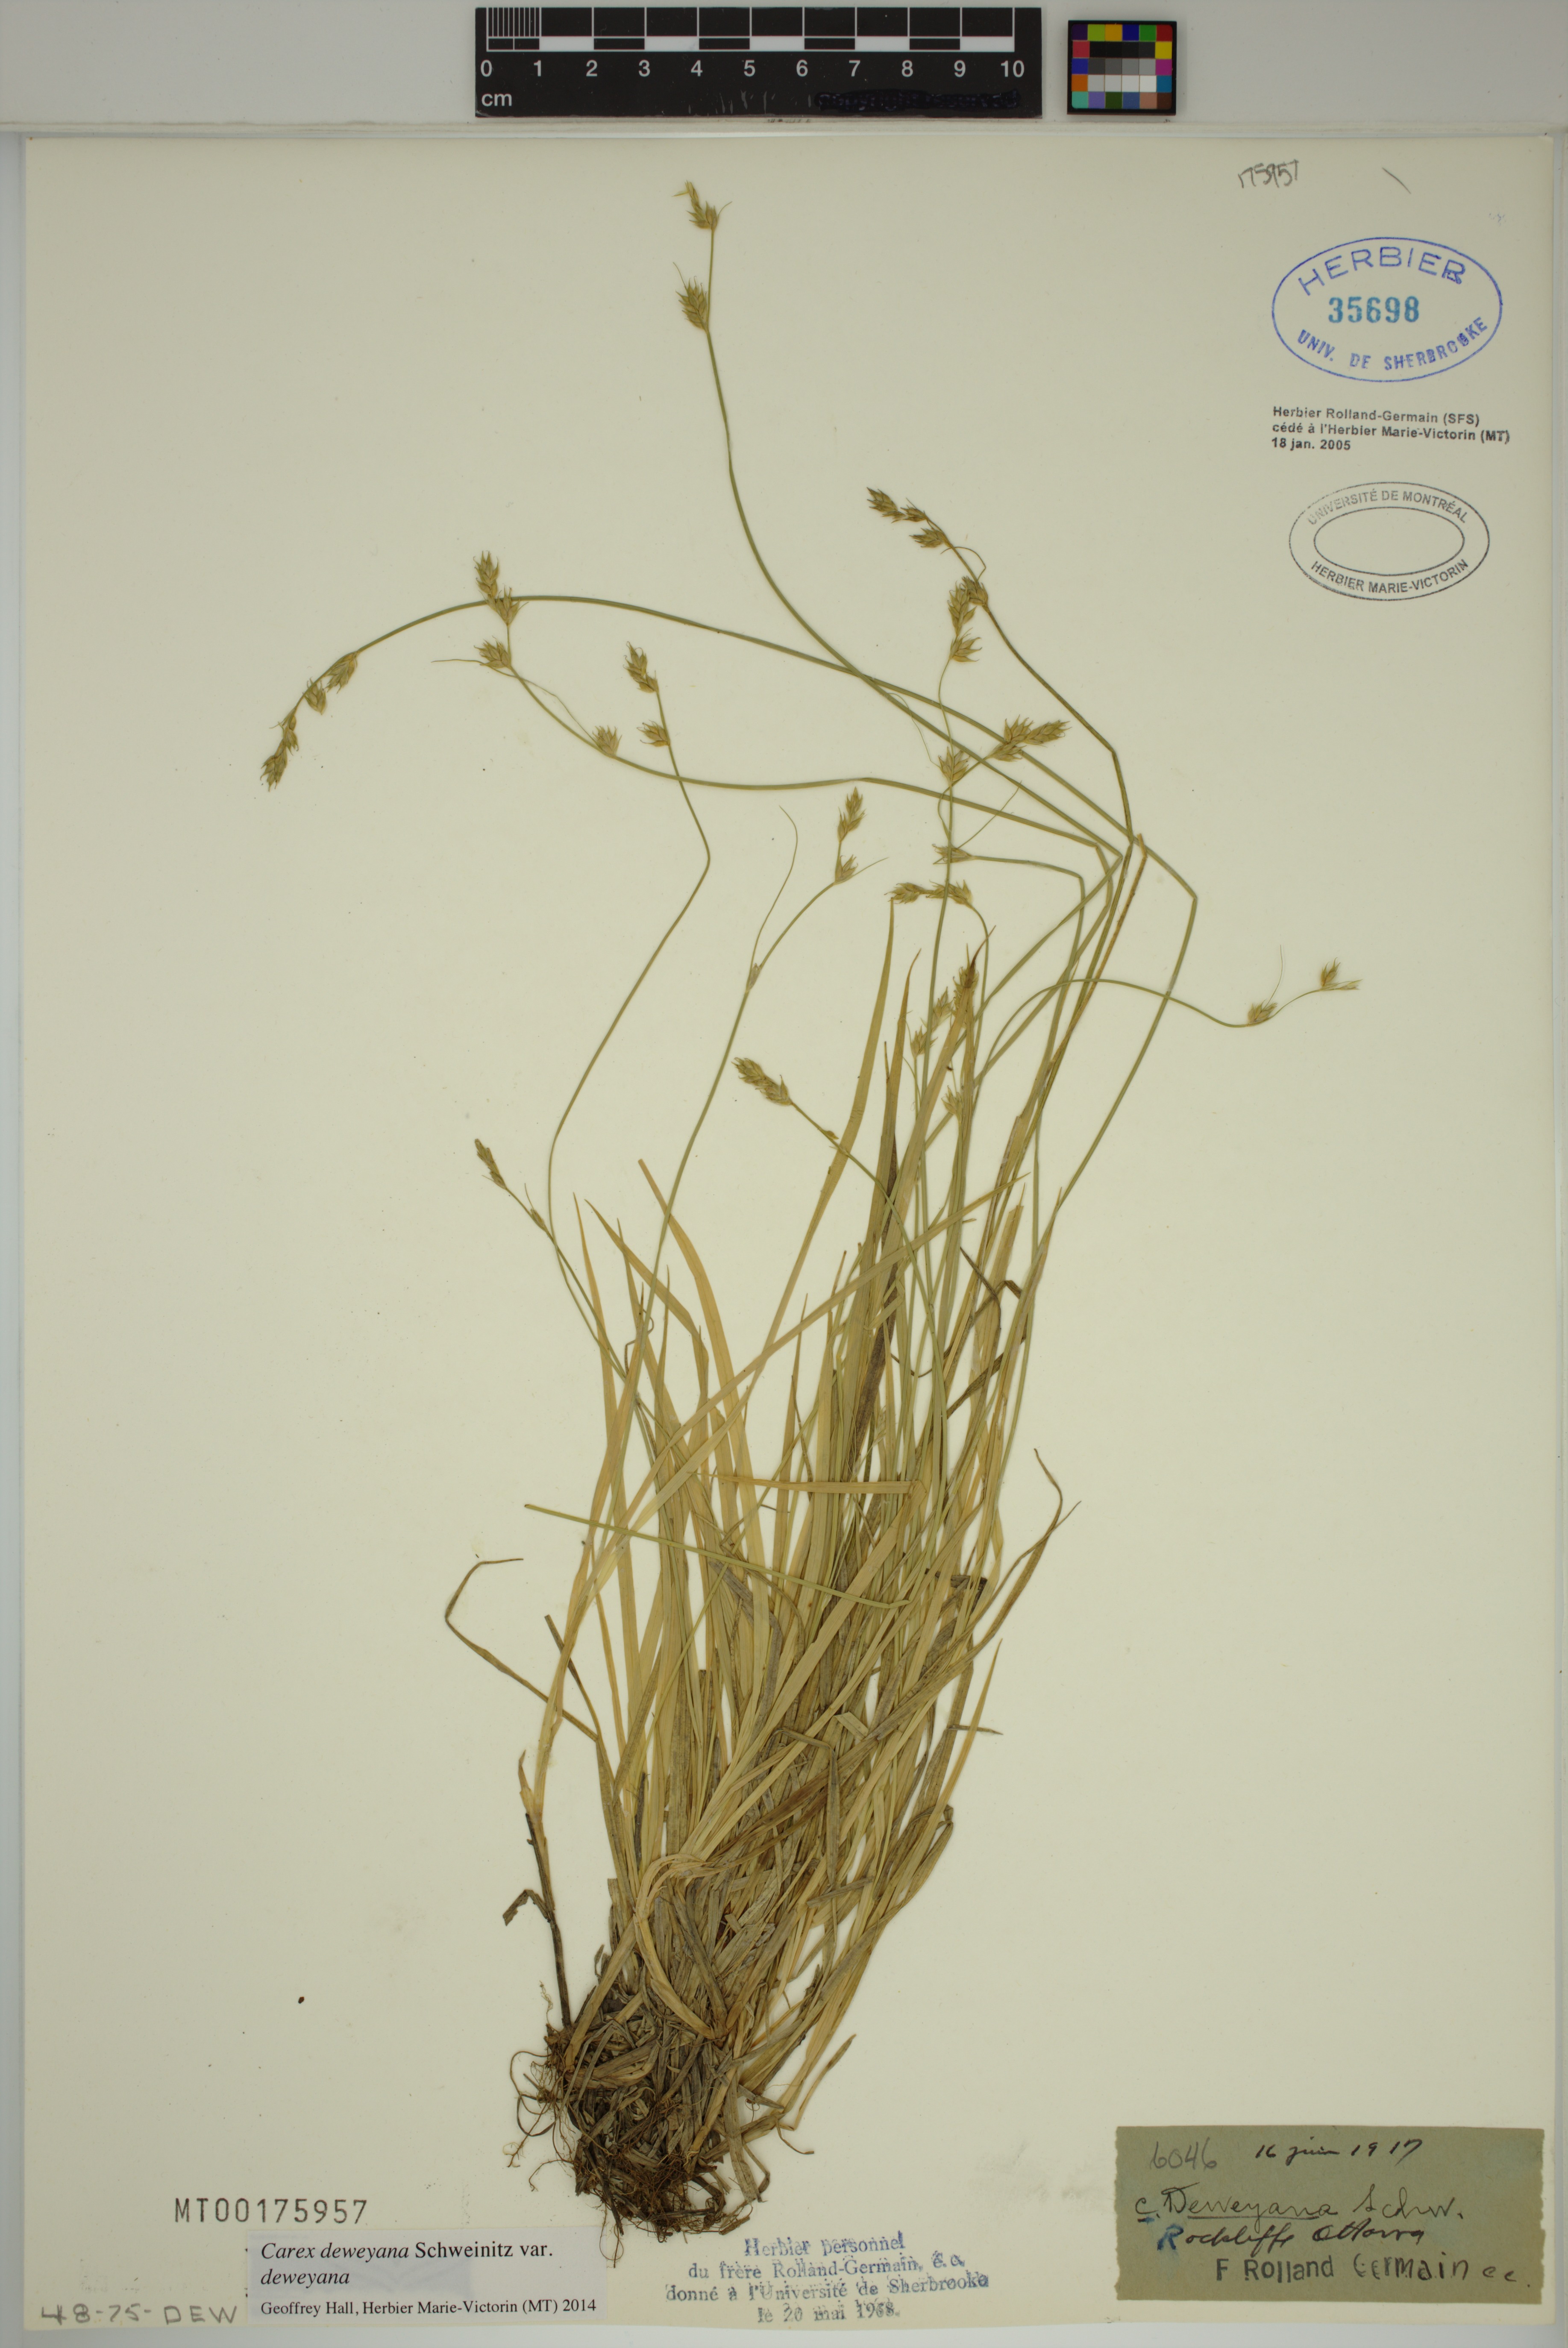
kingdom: Plantae
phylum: Tracheophyta
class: Liliopsida
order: Poales
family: Cyperaceae
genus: Carex
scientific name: Carex deweyana
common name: Dewey's sedge
